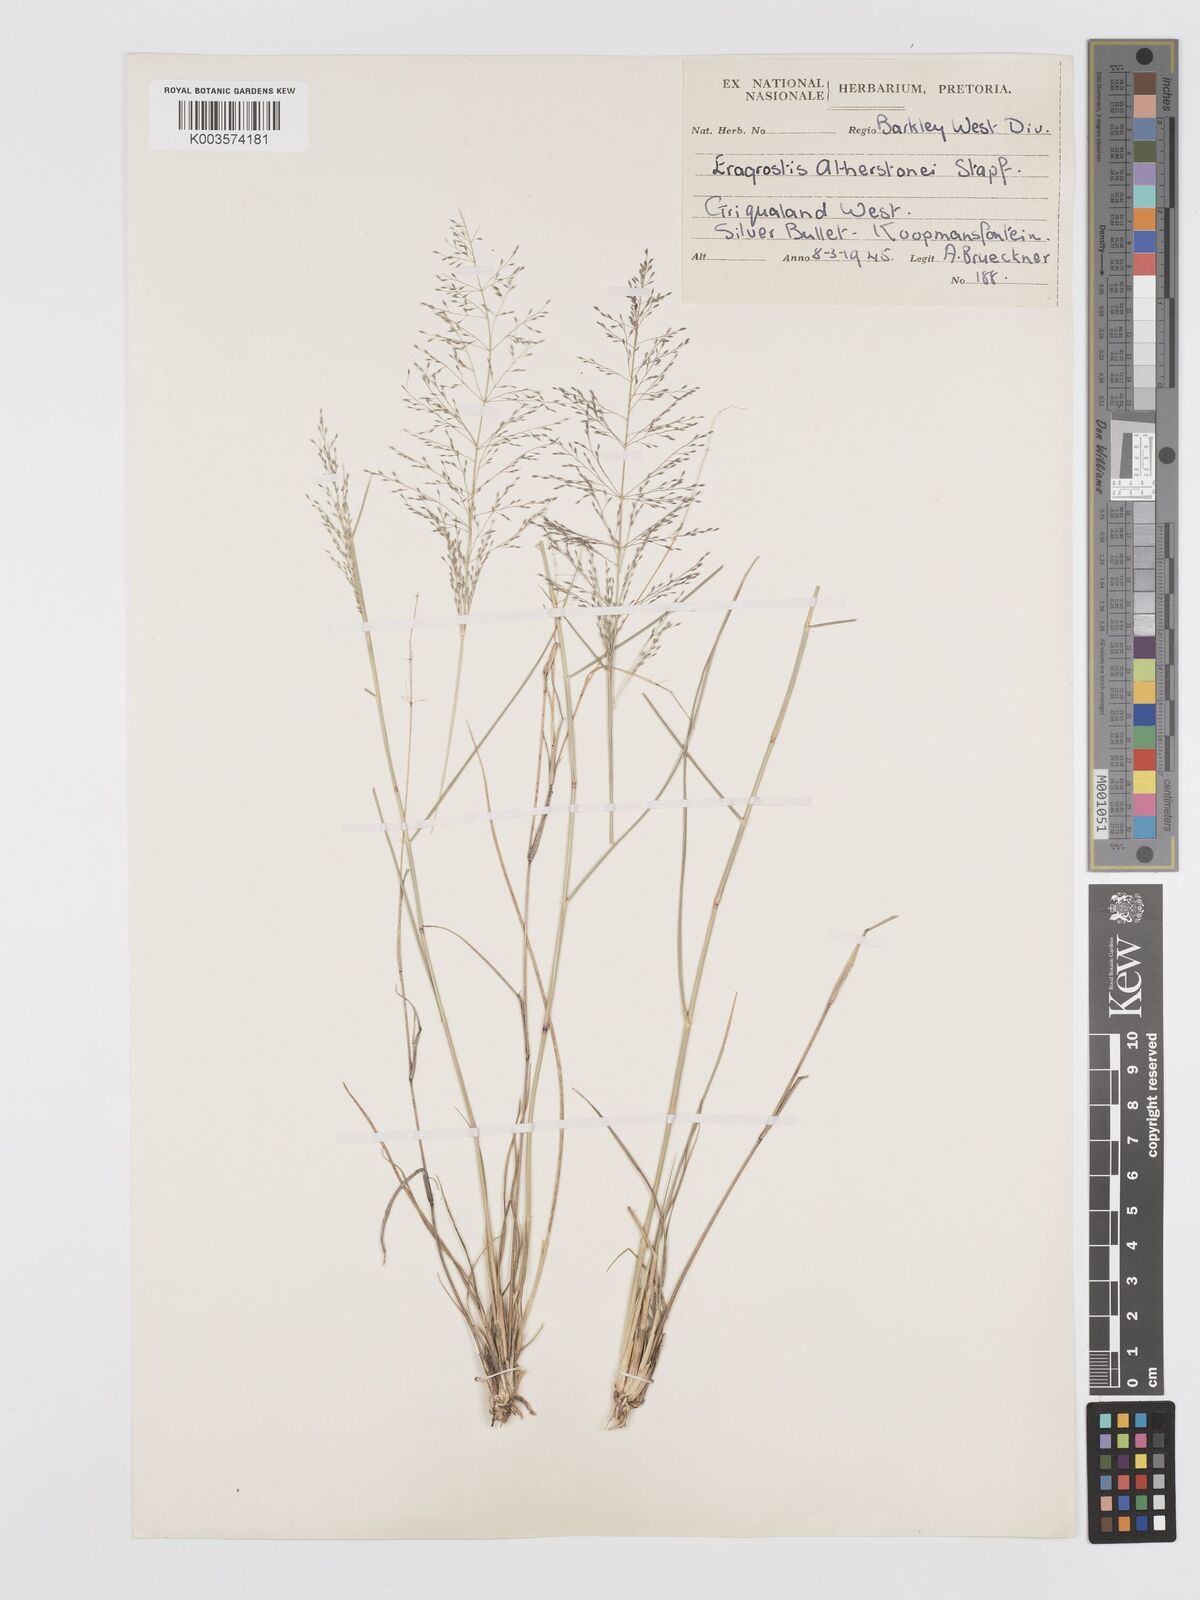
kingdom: Plantae
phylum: Tracheophyta
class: Liliopsida
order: Poales
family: Poaceae
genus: Eragrostis
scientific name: Eragrostis cylindriflora
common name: Cylinderflower lovegrass
